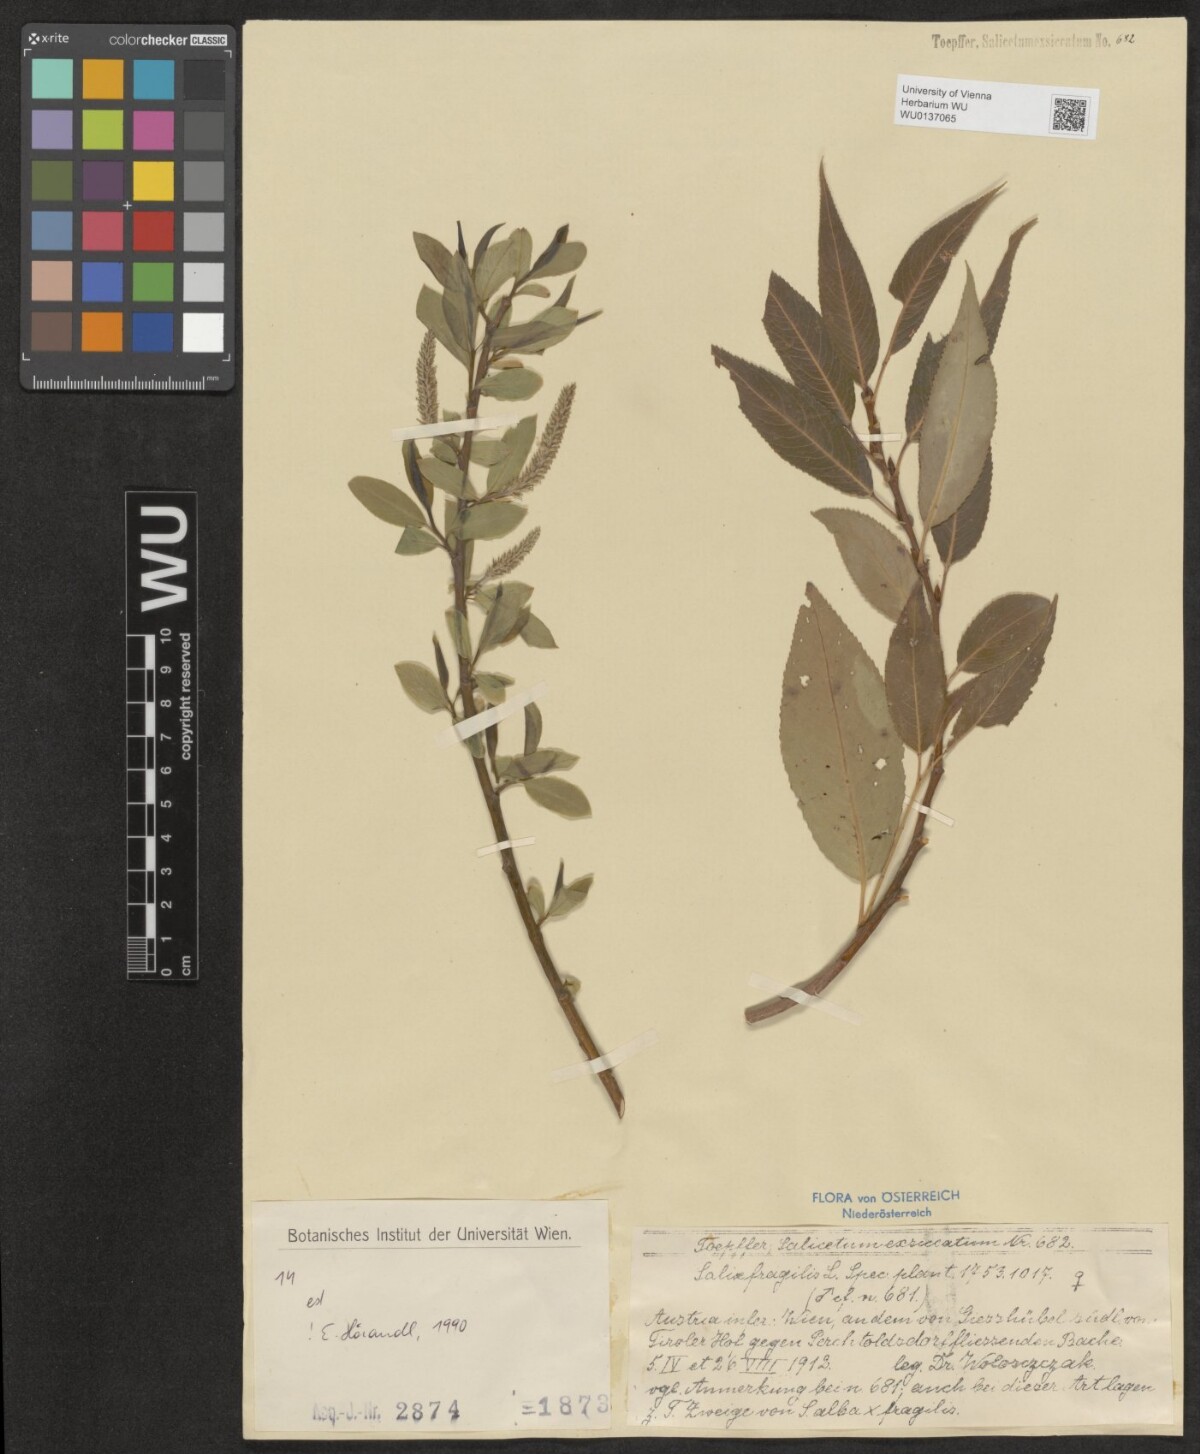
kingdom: Plantae
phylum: Tracheophyta
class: Magnoliopsida
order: Malpighiales
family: Salicaceae
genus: Salix
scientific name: Salix fragilis
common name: Crack willow
